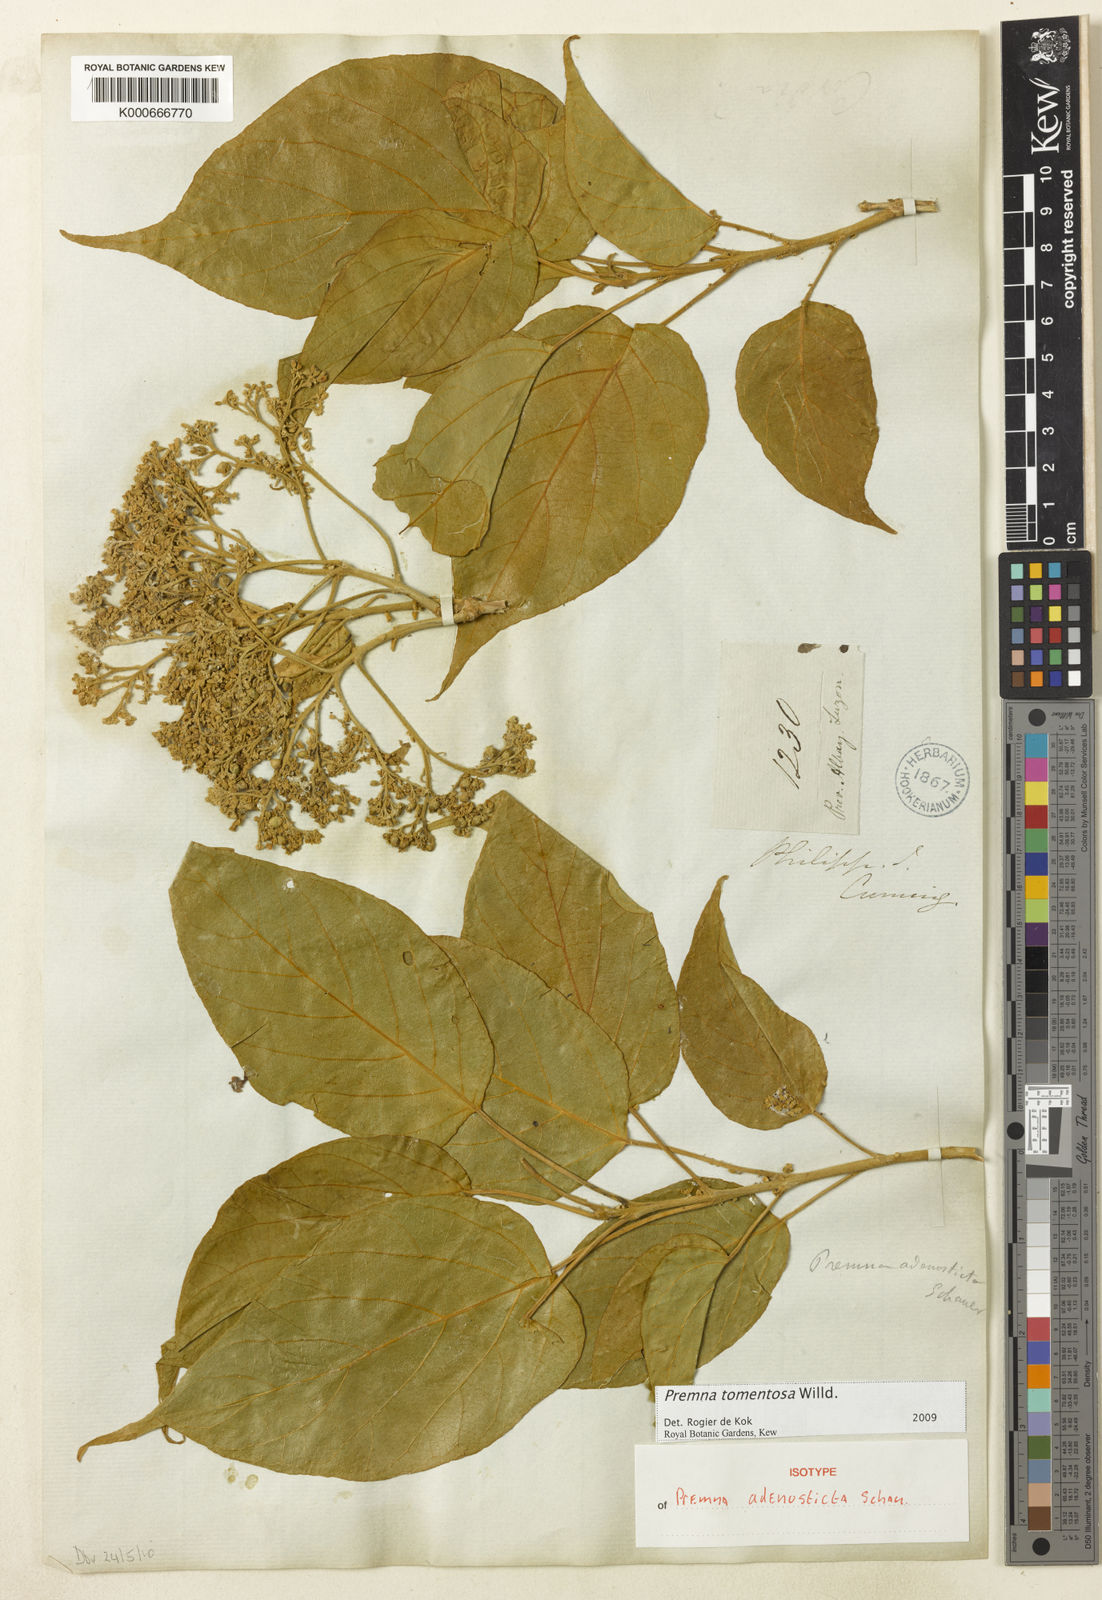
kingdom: Plantae
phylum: Tracheophyta
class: Magnoliopsida
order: Lamiales
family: Lamiaceae
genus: Premna
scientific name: Premna tomentosa
